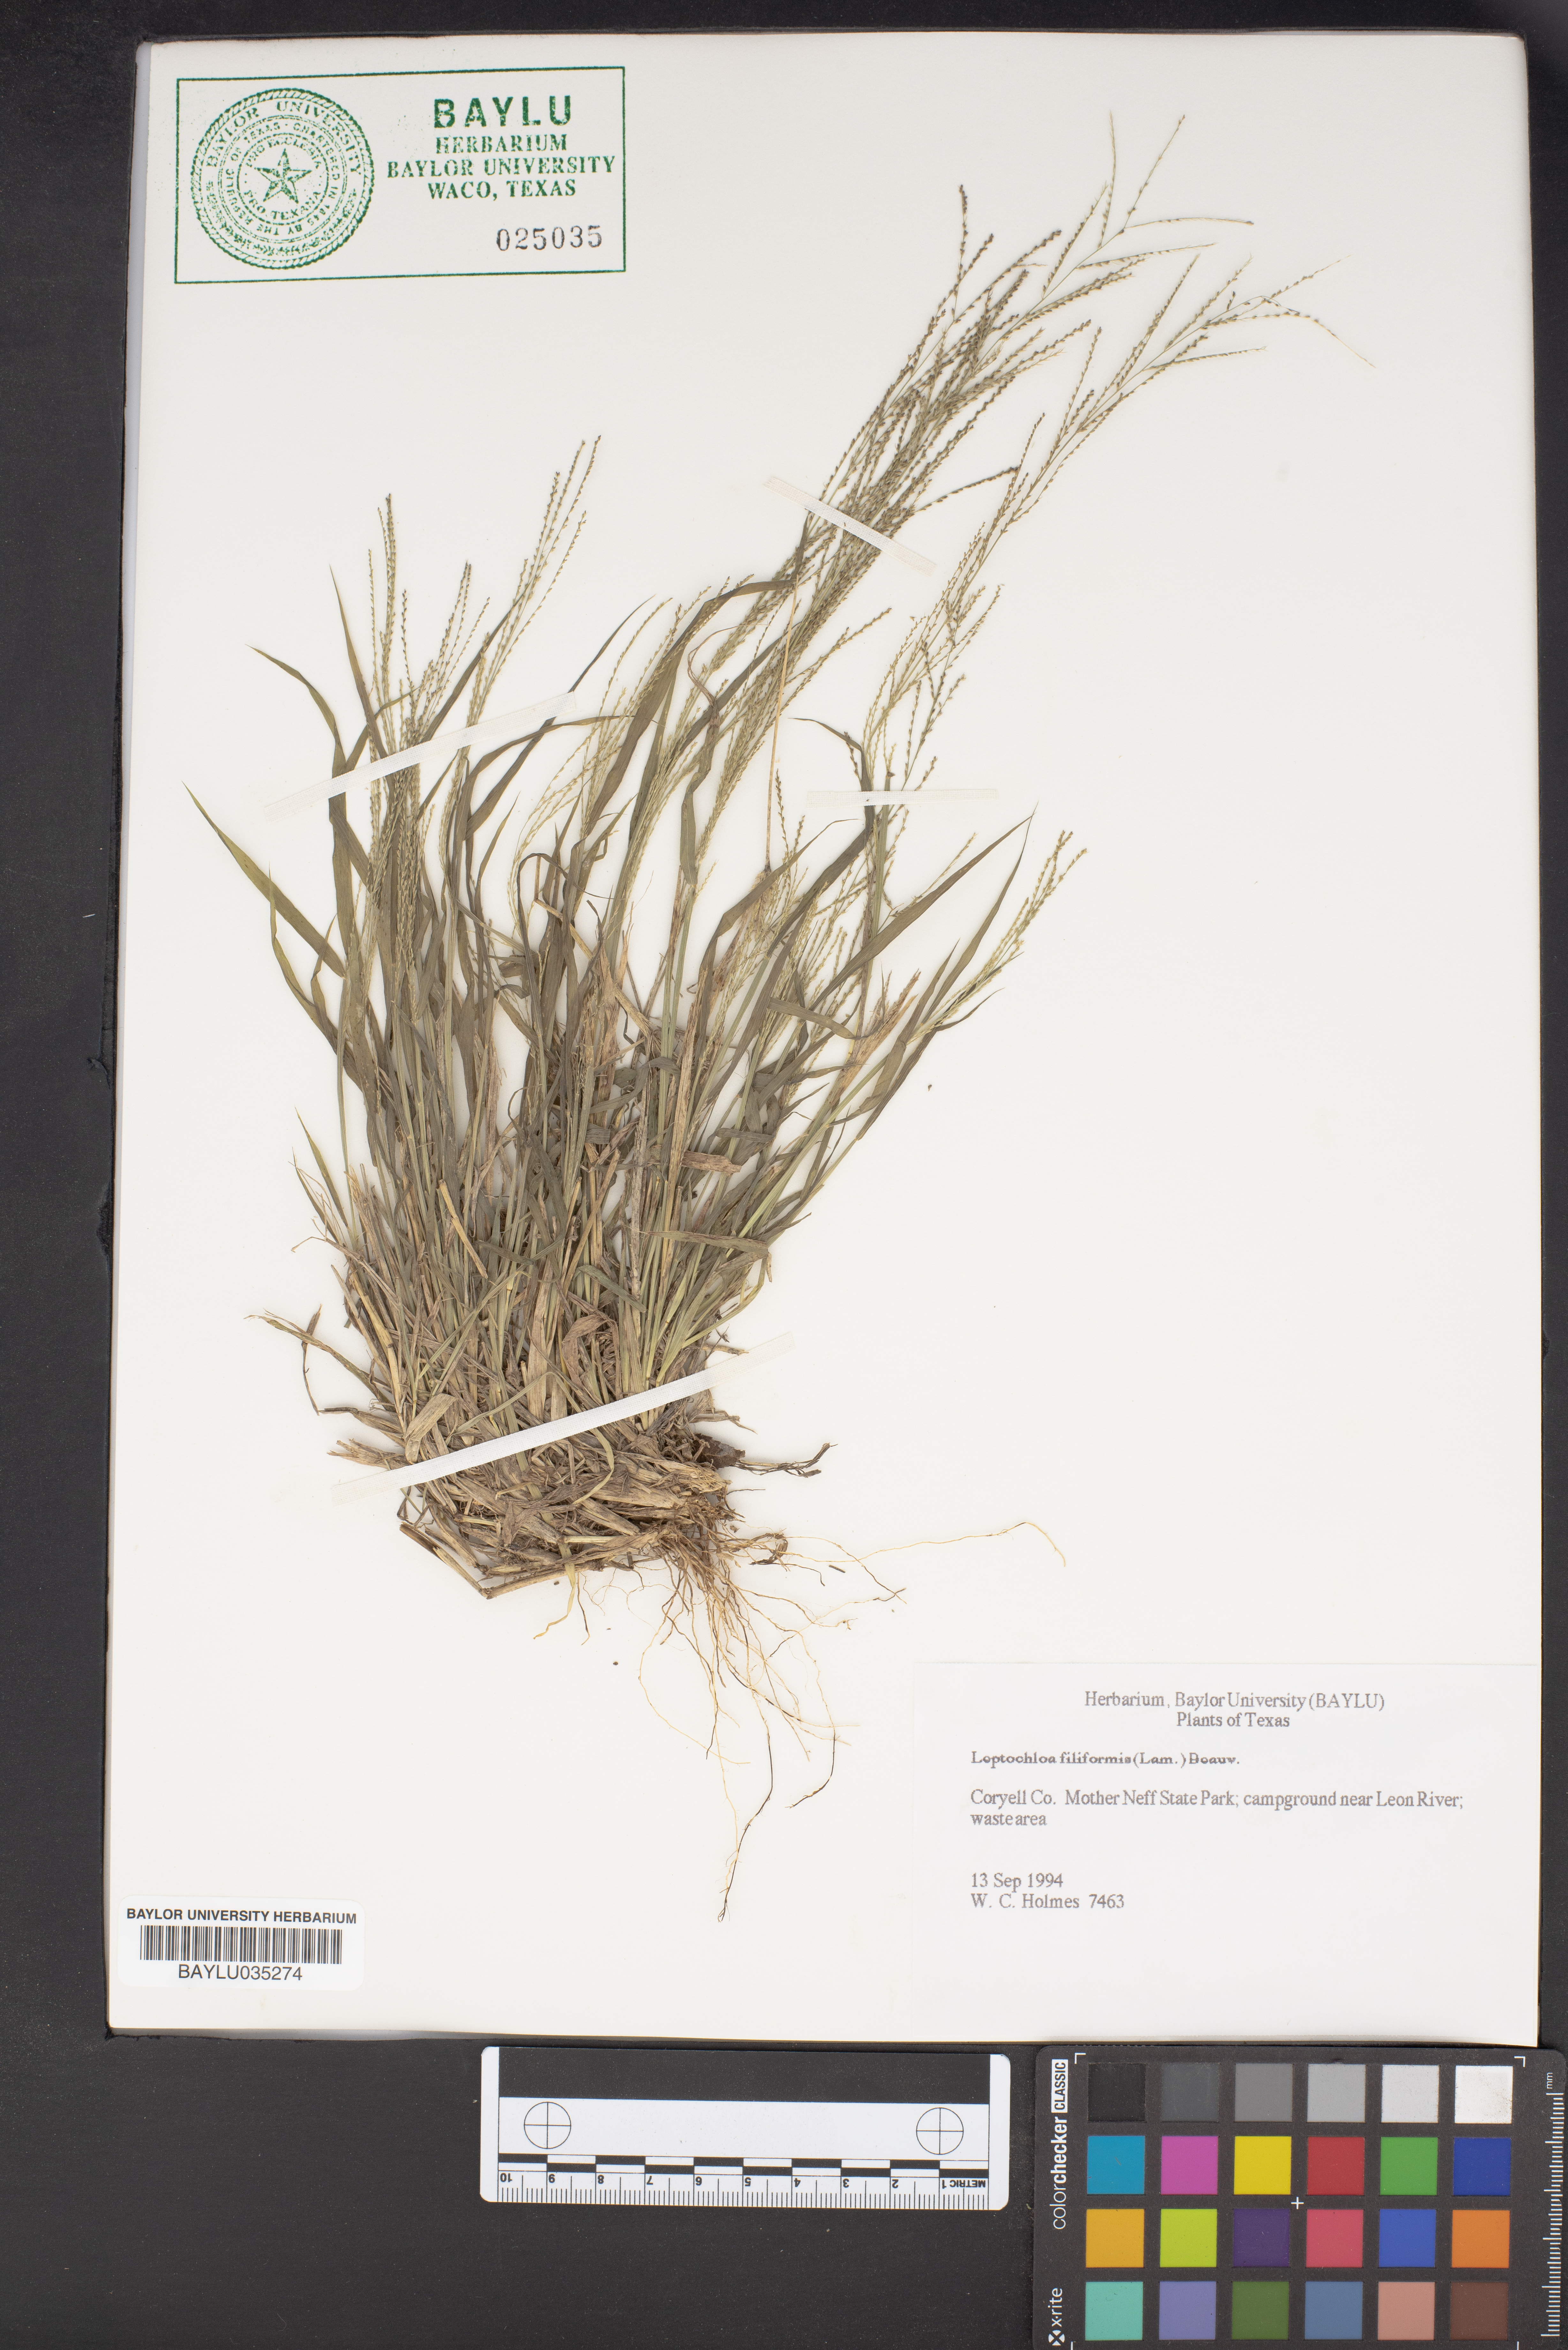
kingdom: Plantae
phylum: Tracheophyta
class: Liliopsida
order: Poales
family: Poaceae
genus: Leptochloa
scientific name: Leptochloa mucronata
